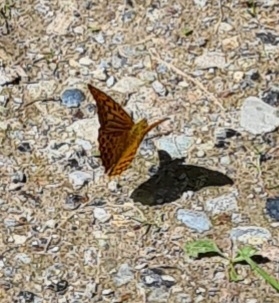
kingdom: Animalia
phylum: Arthropoda
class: Insecta
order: Lepidoptera
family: Nymphalidae
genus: Argynnis
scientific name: Argynnis paphia
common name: Kejserkåbe
